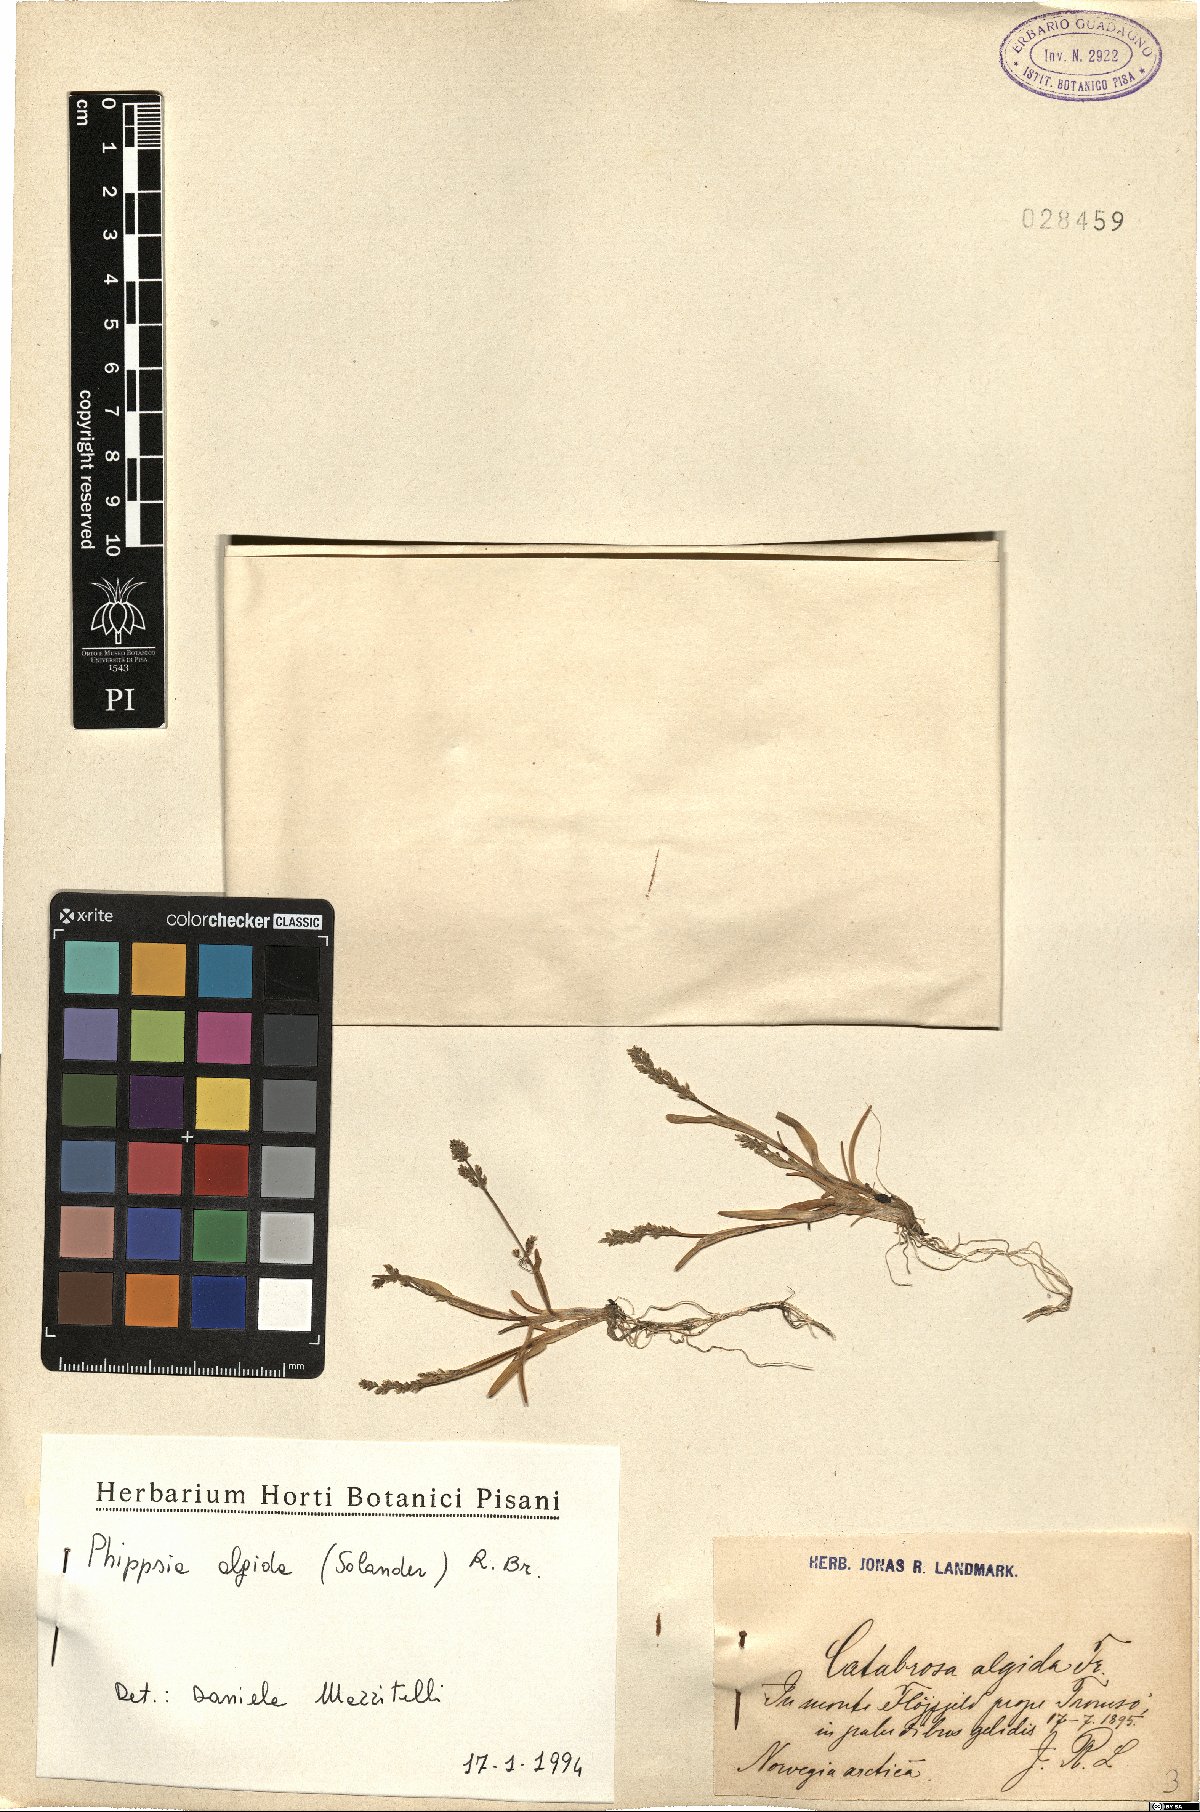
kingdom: Plantae
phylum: Tracheophyta
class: Liliopsida
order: Poales
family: Poaceae
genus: Phippsia
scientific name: Phippsia algida
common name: Ice grass
